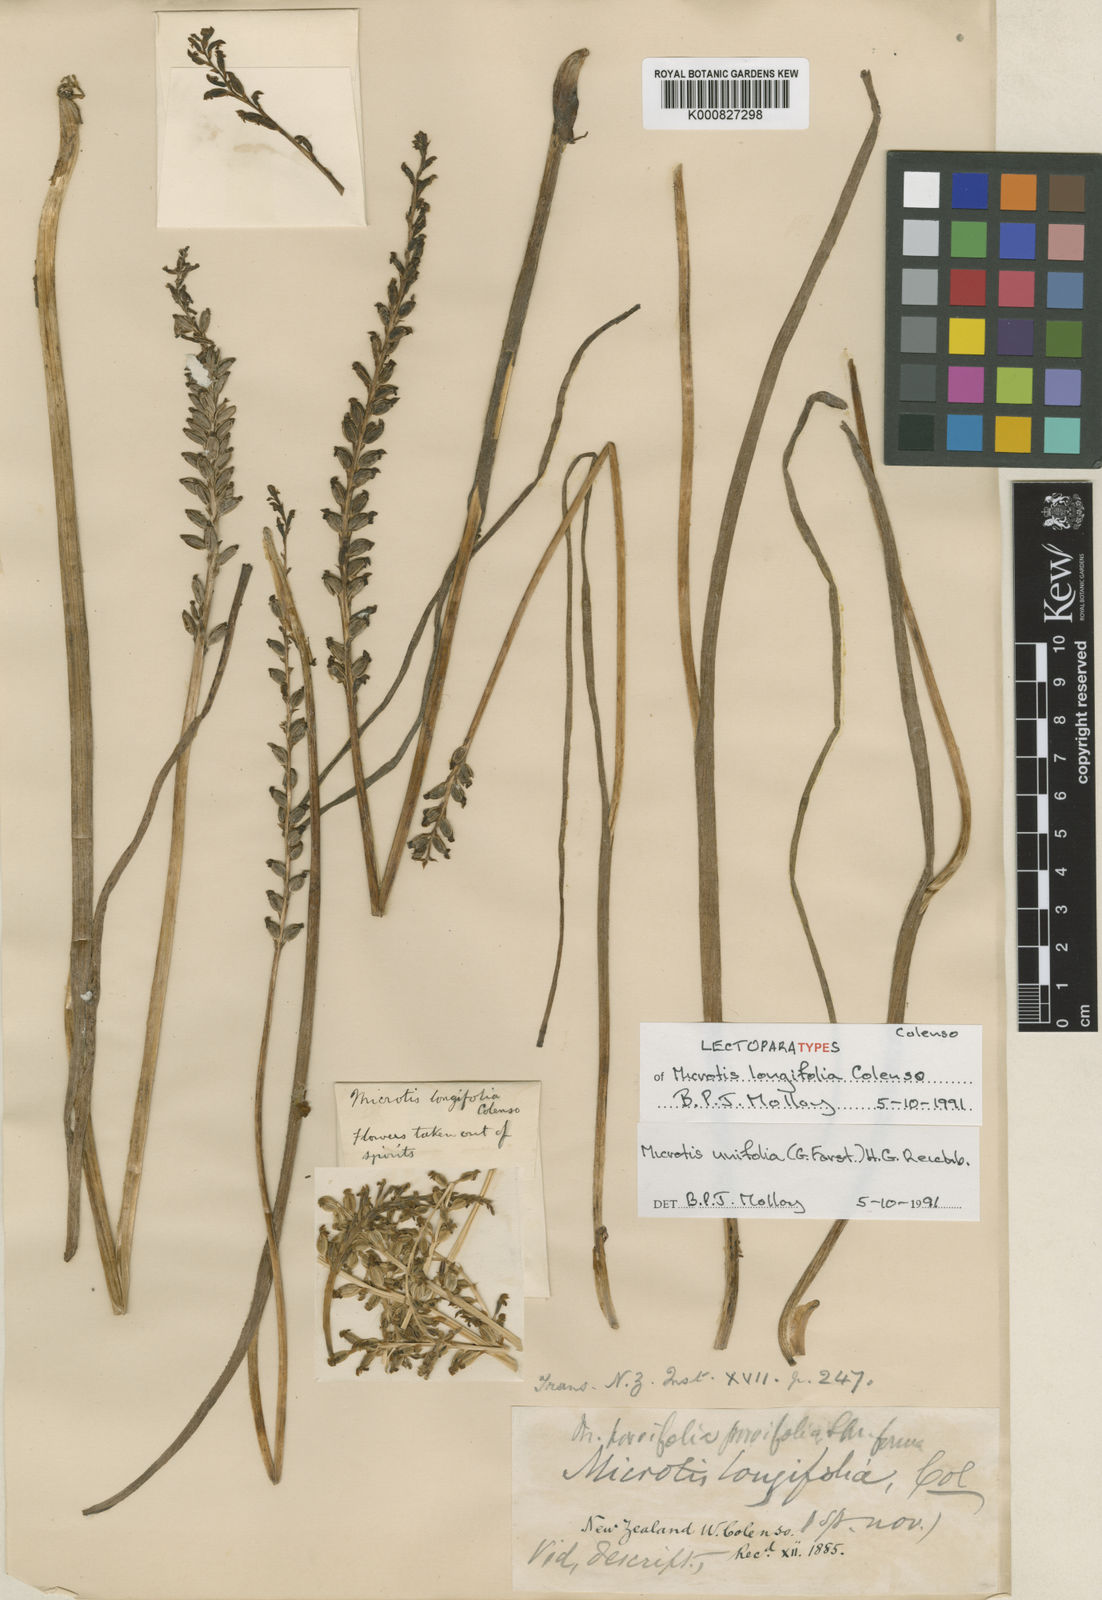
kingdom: Plantae
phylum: Tracheophyta
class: Liliopsida
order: Asparagales
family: Orchidaceae
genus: Microtis
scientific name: Microtis unifolia
